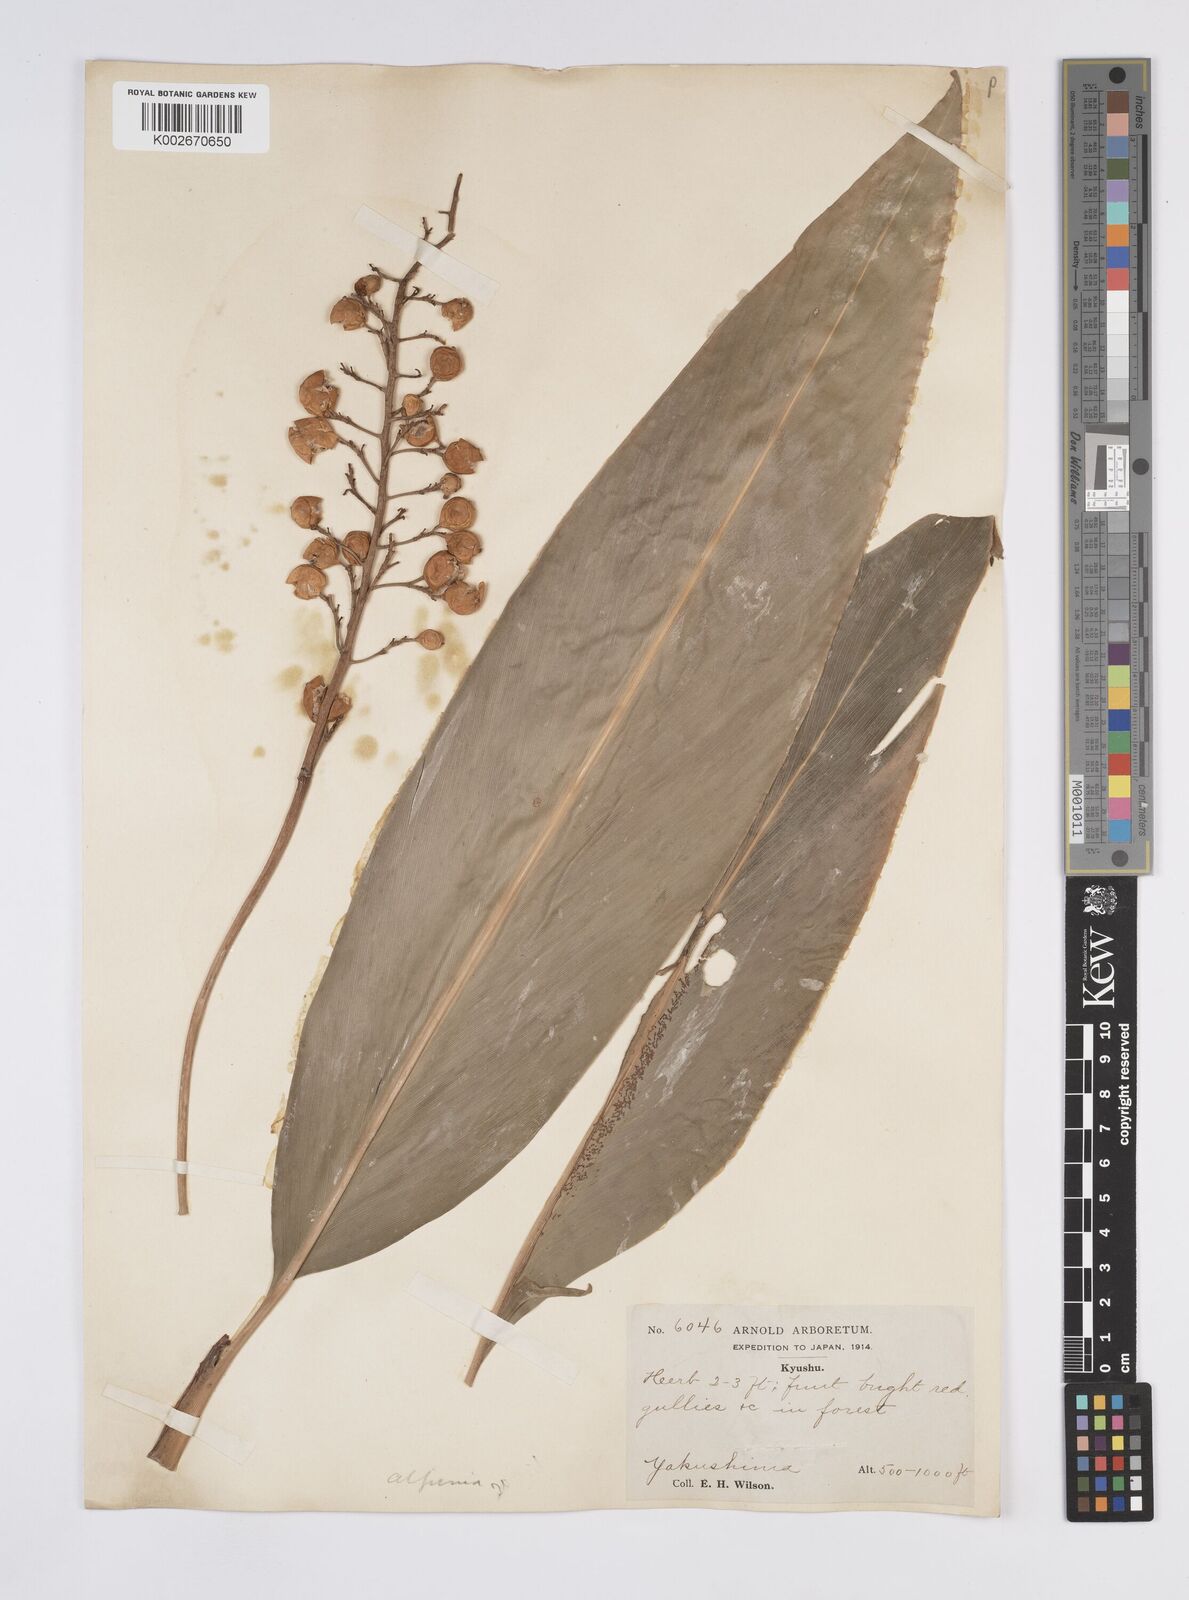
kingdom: Plantae
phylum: Tracheophyta
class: Liliopsida
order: Zingiberales
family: Zingiberaceae
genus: Alpinia
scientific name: Alpinia
